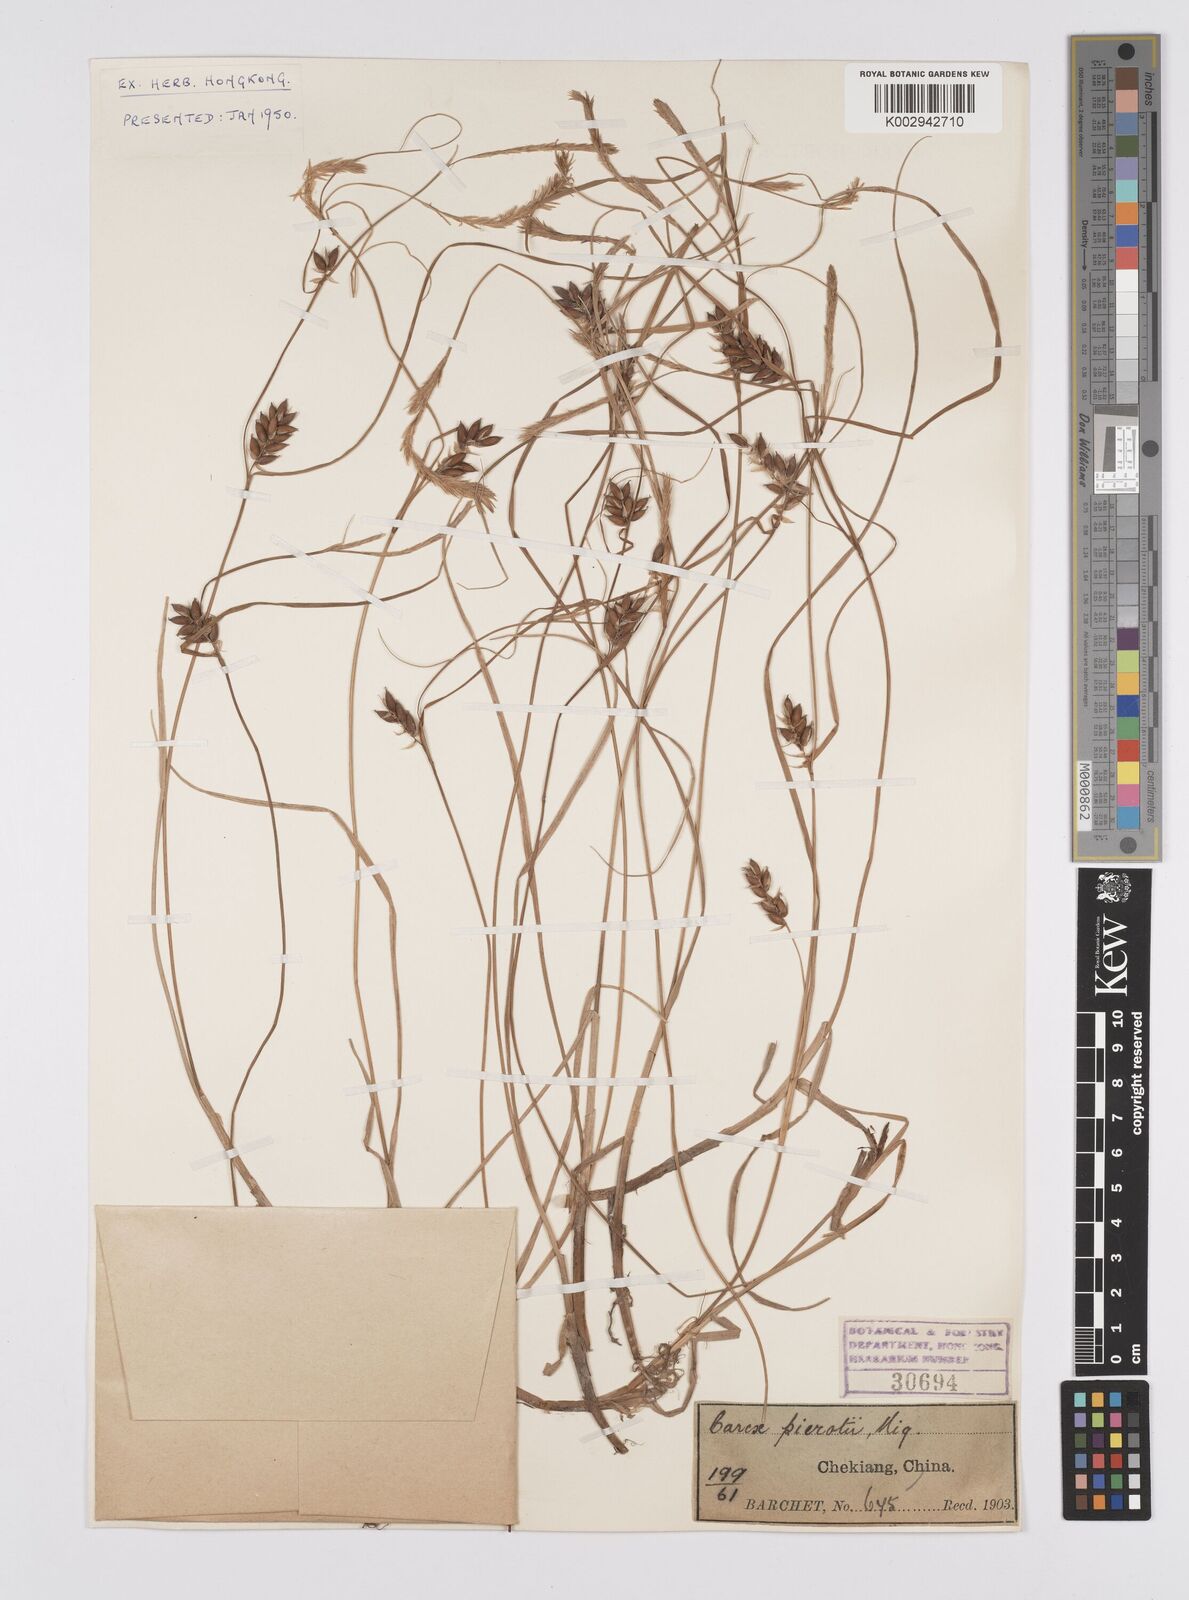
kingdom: Plantae
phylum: Tracheophyta
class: Liliopsida
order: Poales
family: Cyperaceae
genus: Carex
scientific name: Carex scabrifolia
